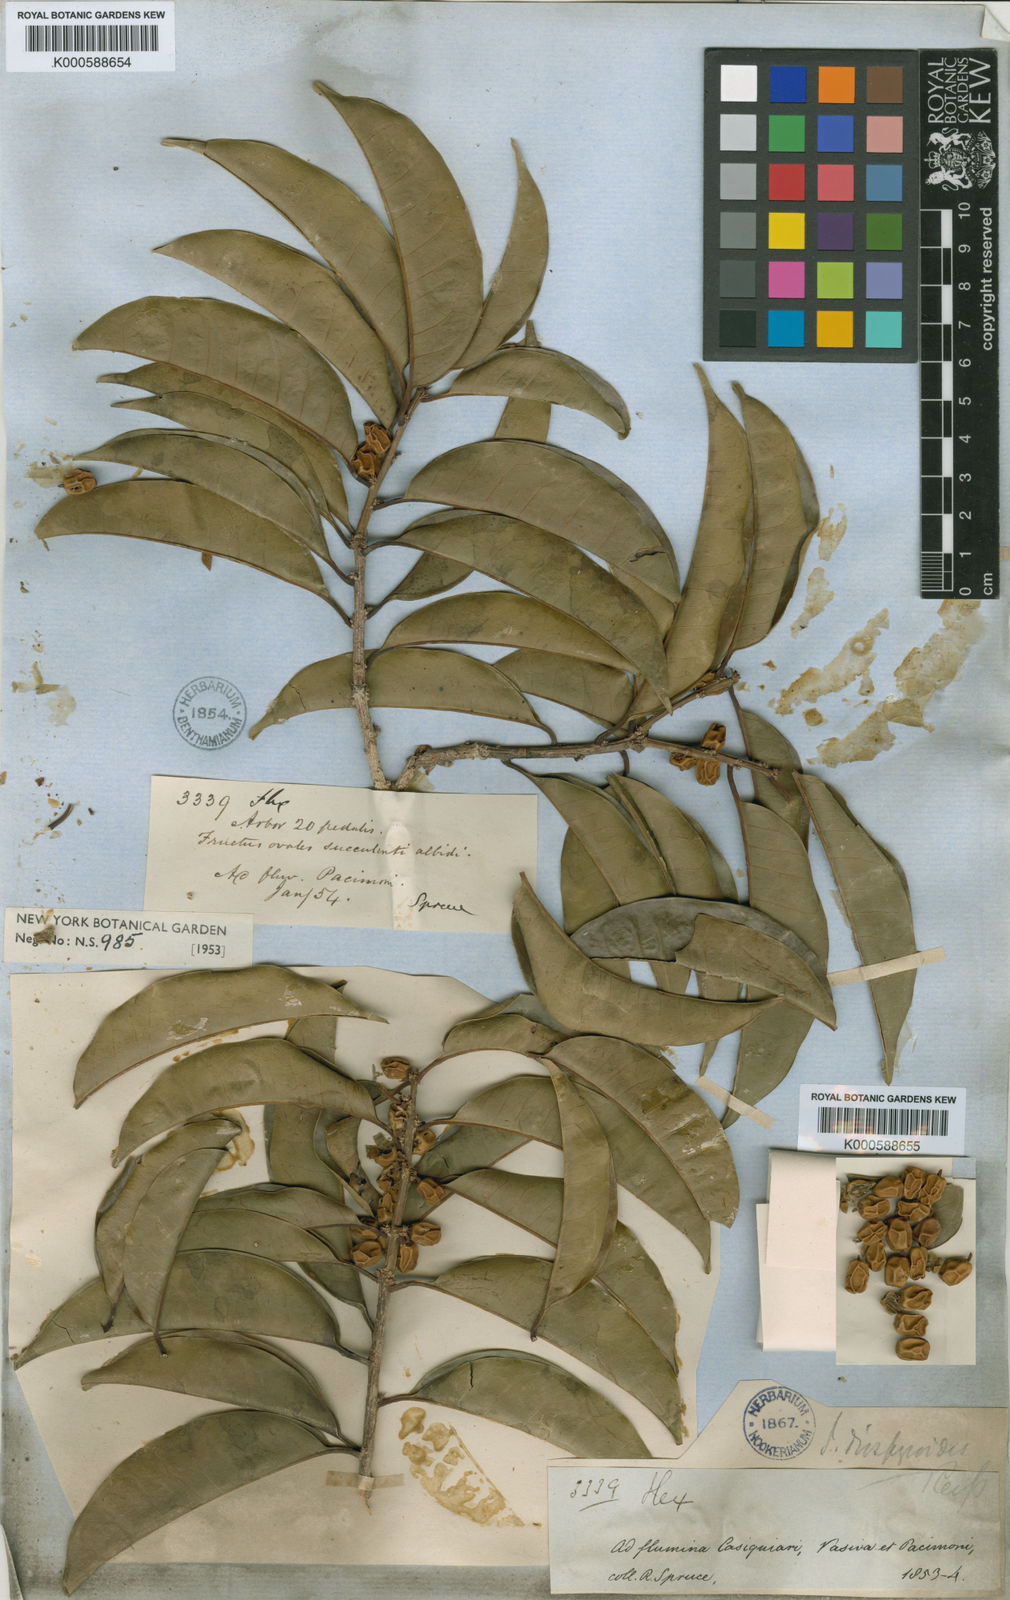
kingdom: Plantae
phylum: Tracheophyta
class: Magnoliopsida
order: Aquifoliales
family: Aquifoliaceae
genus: Ilex
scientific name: Ilex diospyroides
